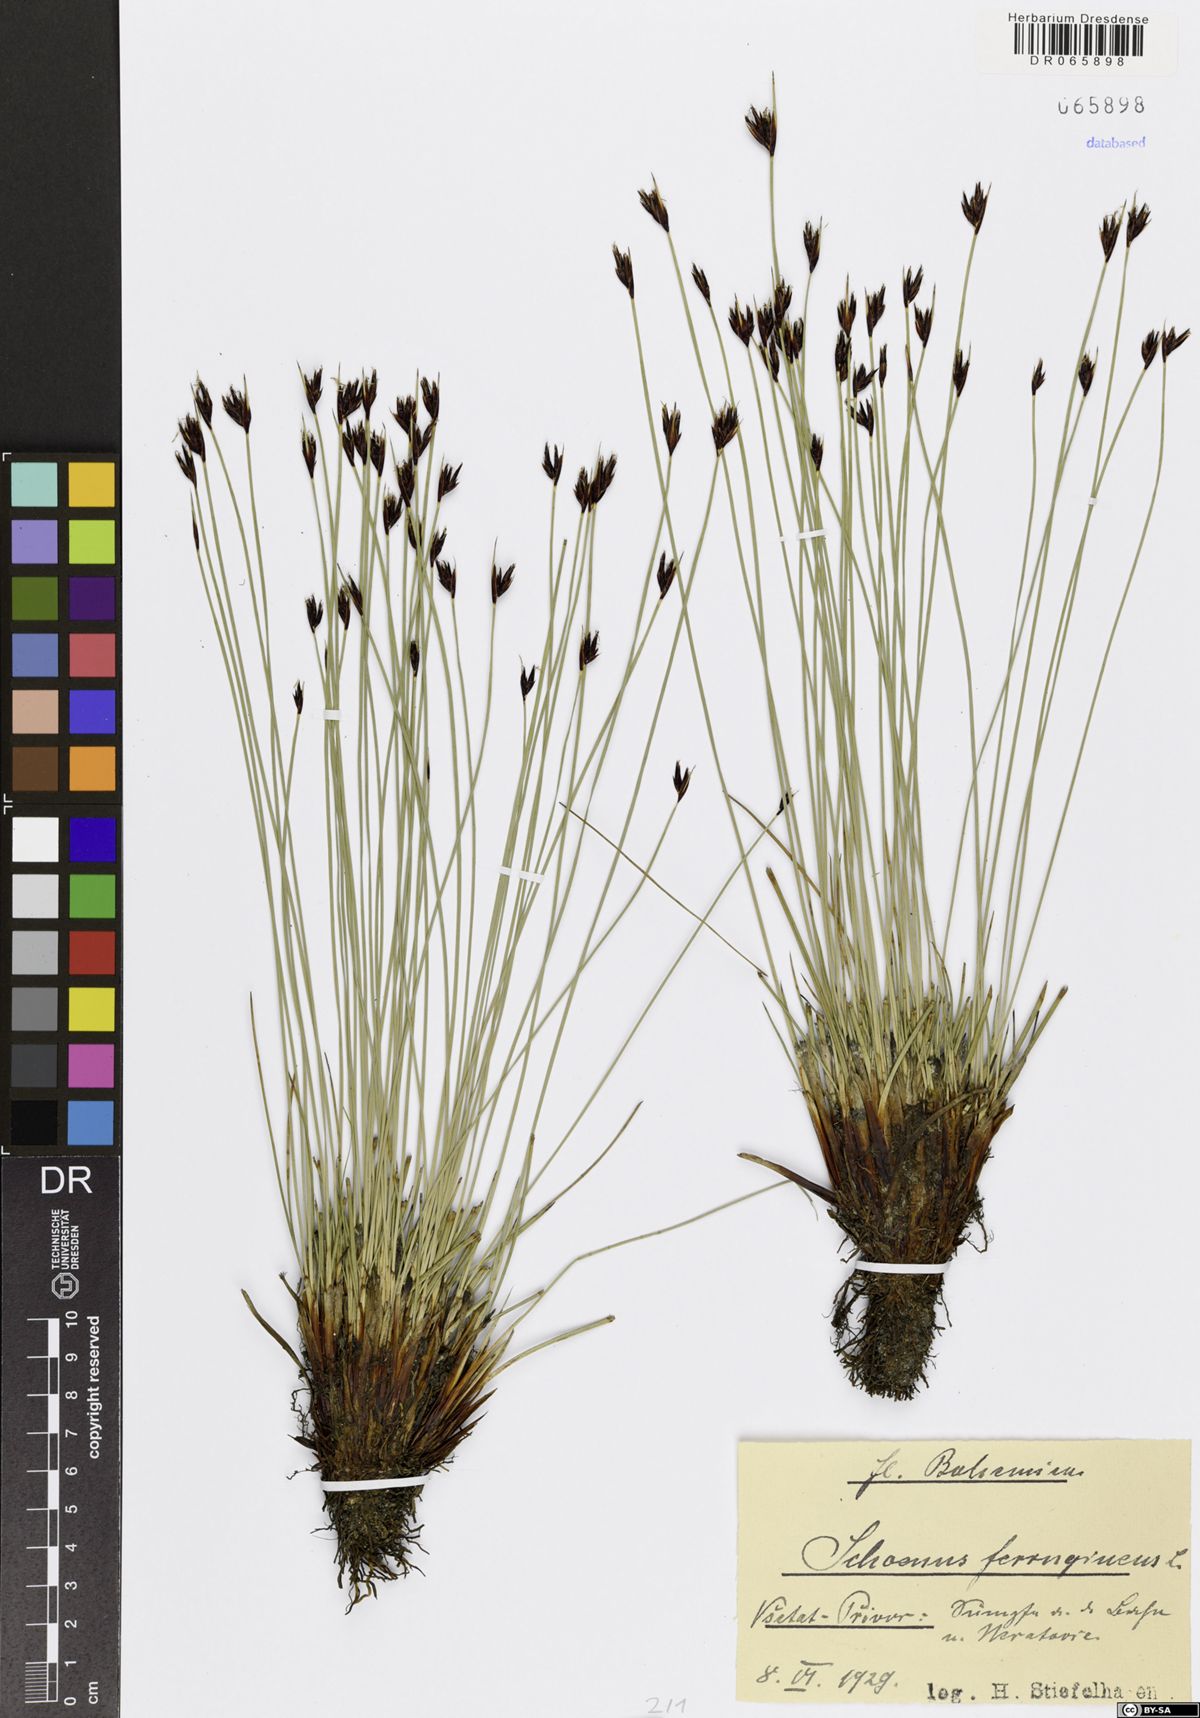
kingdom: Plantae
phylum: Tracheophyta
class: Liliopsida
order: Poales
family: Cyperaceae
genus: Schoenus
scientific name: Schoenus ferrugineus
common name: Brown bog-rush
